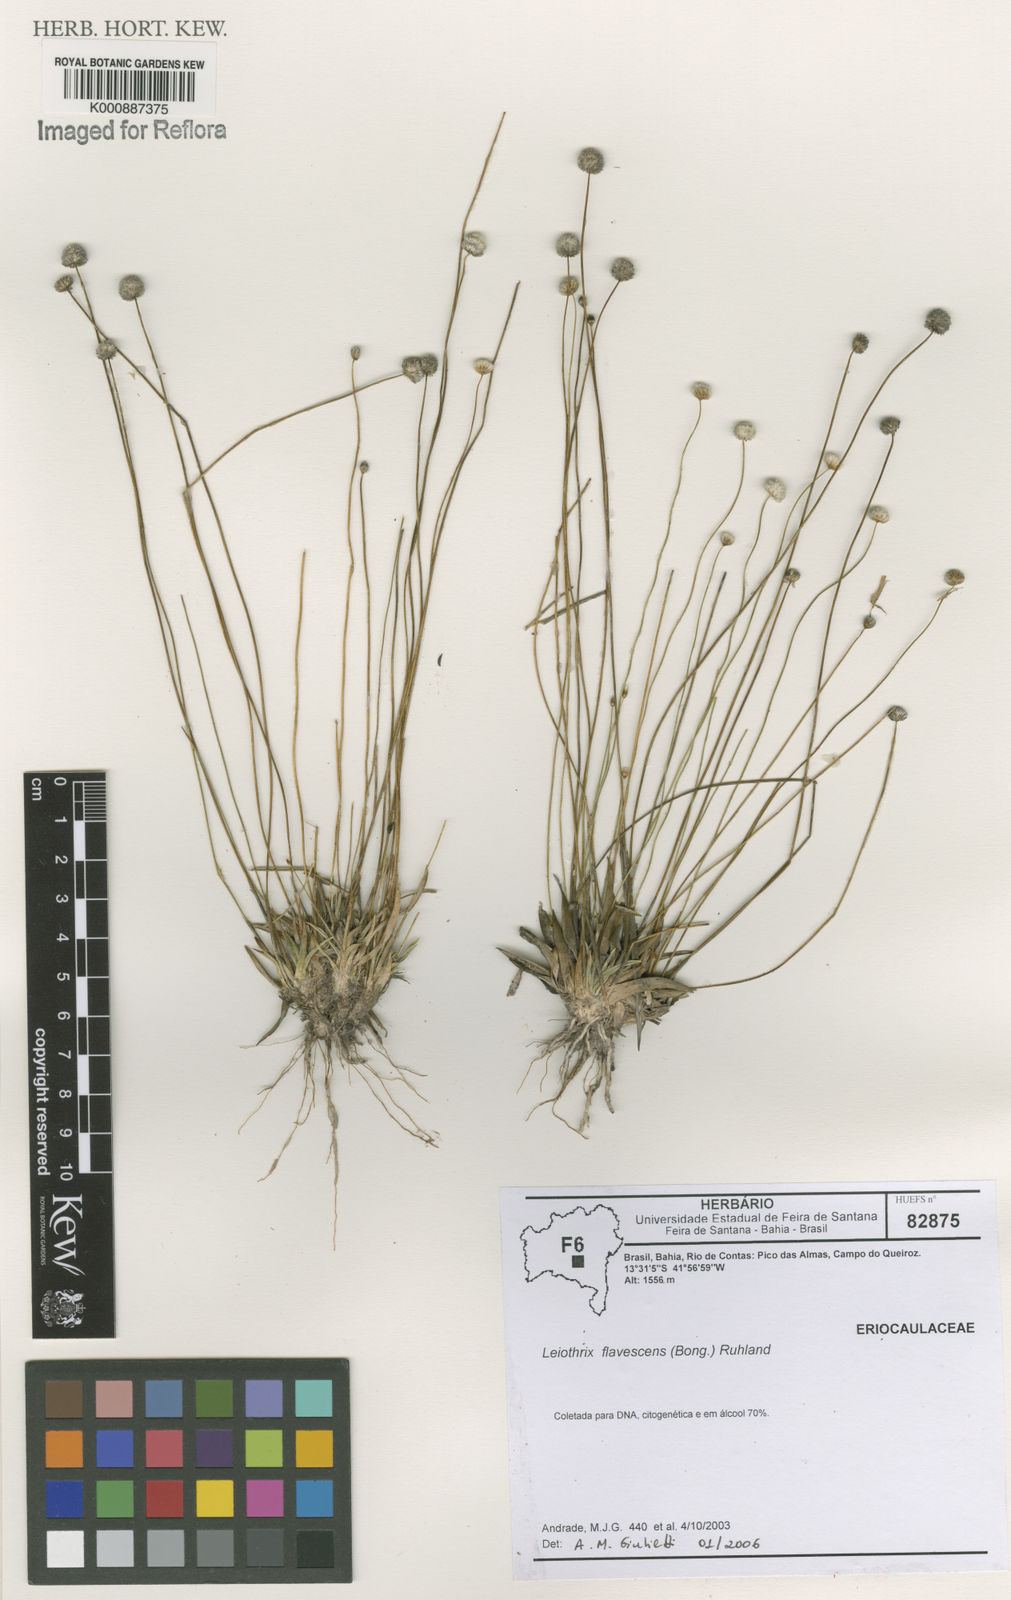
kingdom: Plantae
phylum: Tracheophyta
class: Liliopsida
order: Poales
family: Eriocaulaceae
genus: Leiothrix
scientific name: Leiothrix flavescens
